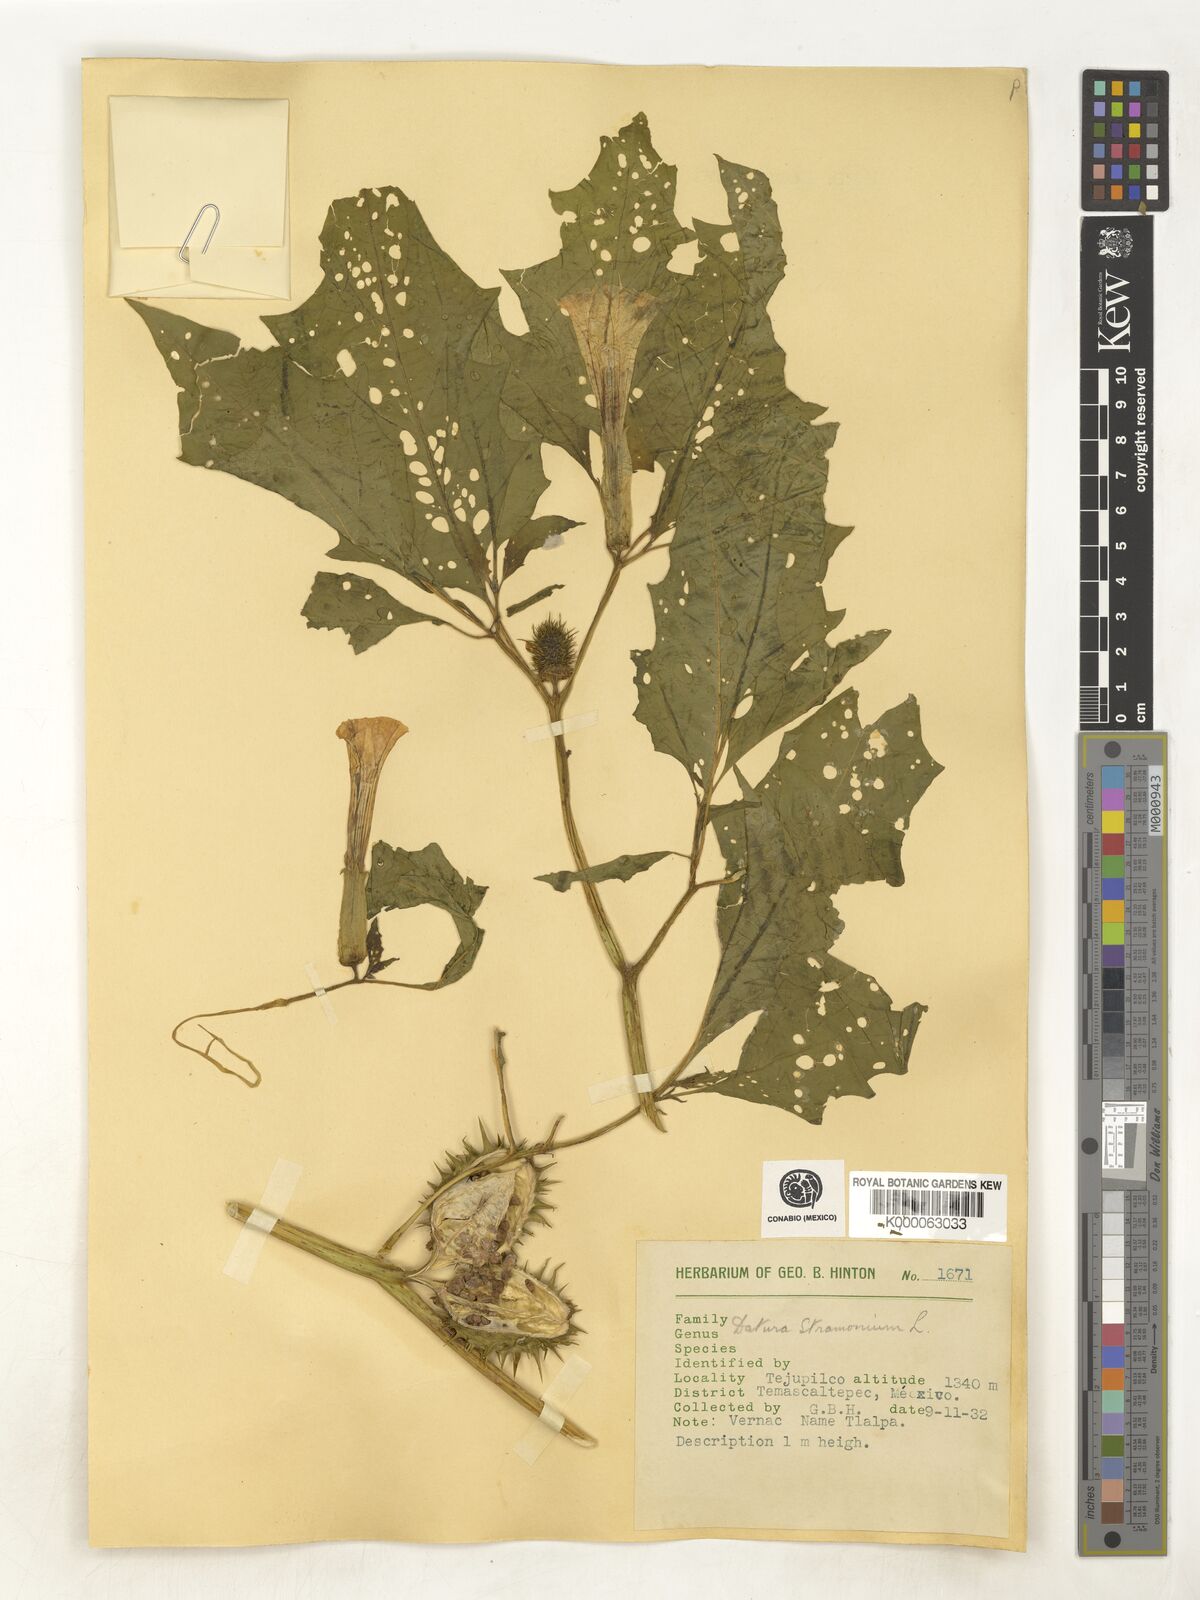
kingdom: Plantae
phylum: Tracheophyta
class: Magnoliopsida
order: Solanales
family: Solanaceae
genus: Datura
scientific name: Datura stramonium
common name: Thorn-apple
